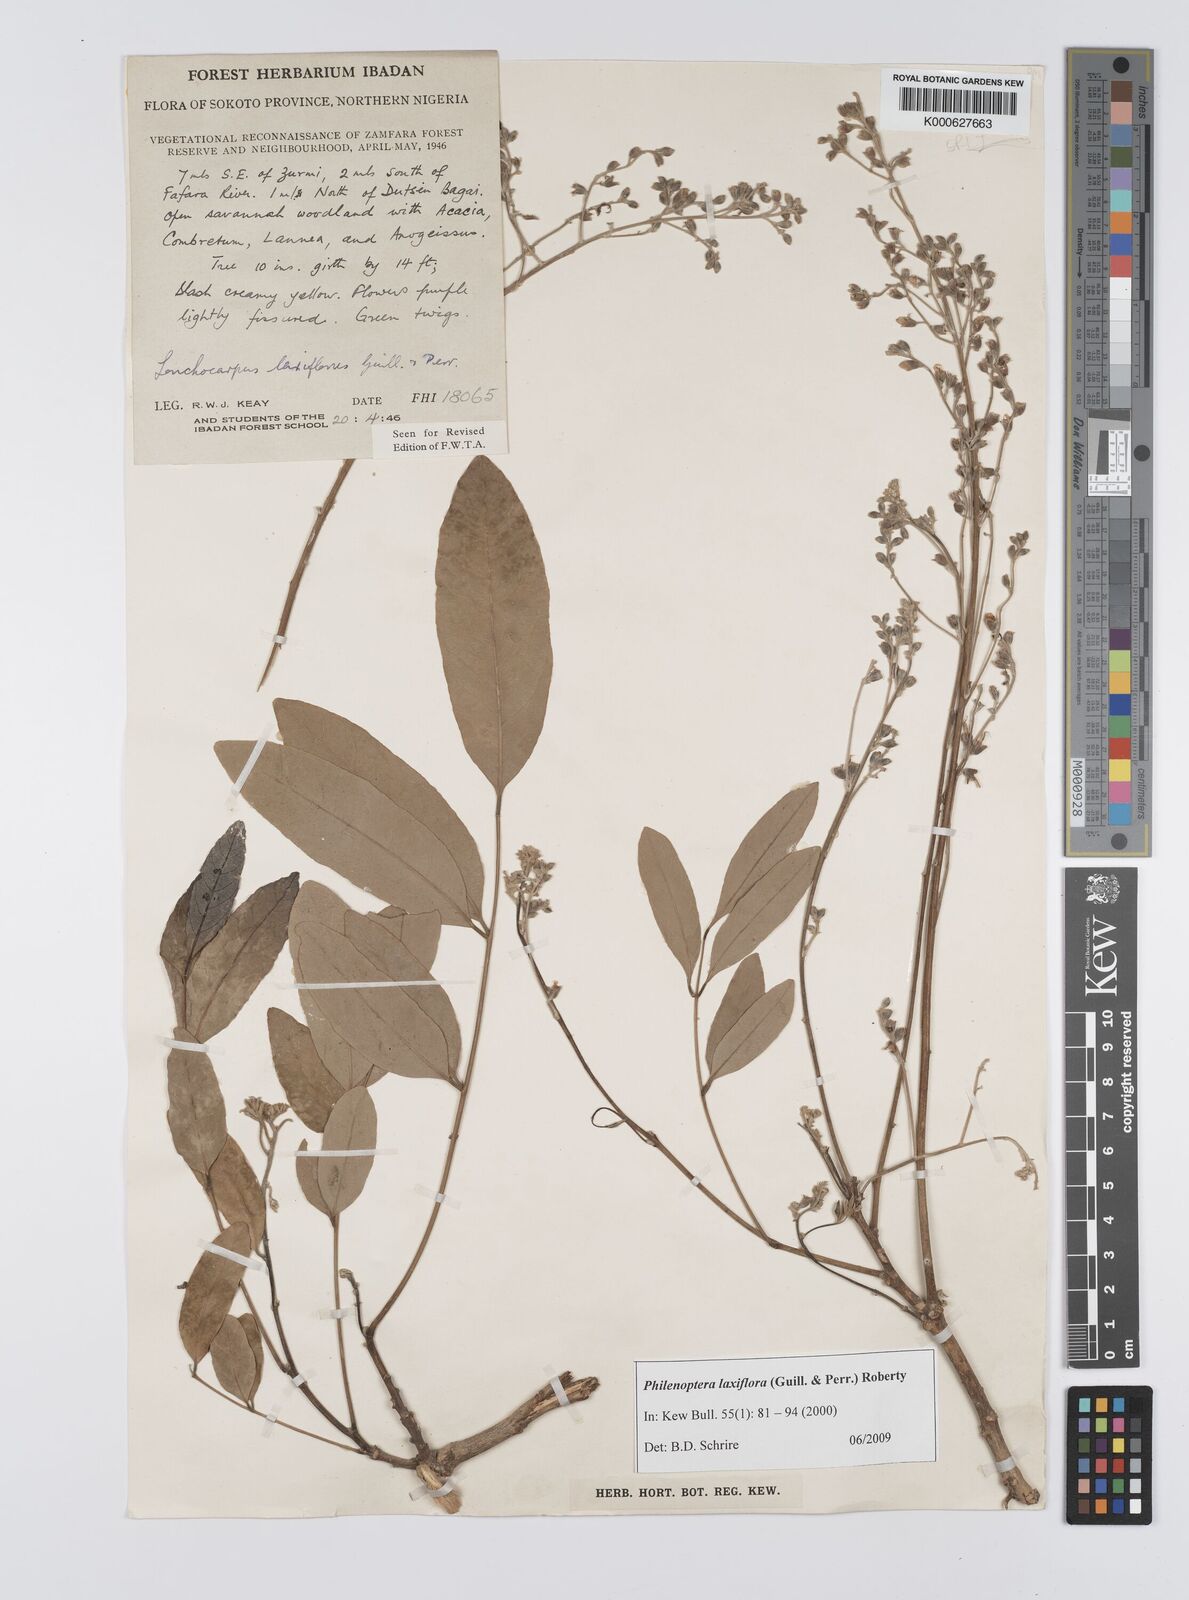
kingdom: Plantae
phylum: Tracheophyta
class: Magnoliopsida
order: Fabales
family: Fabaceae
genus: Philenoptera
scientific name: Philenoptera laxiflora
